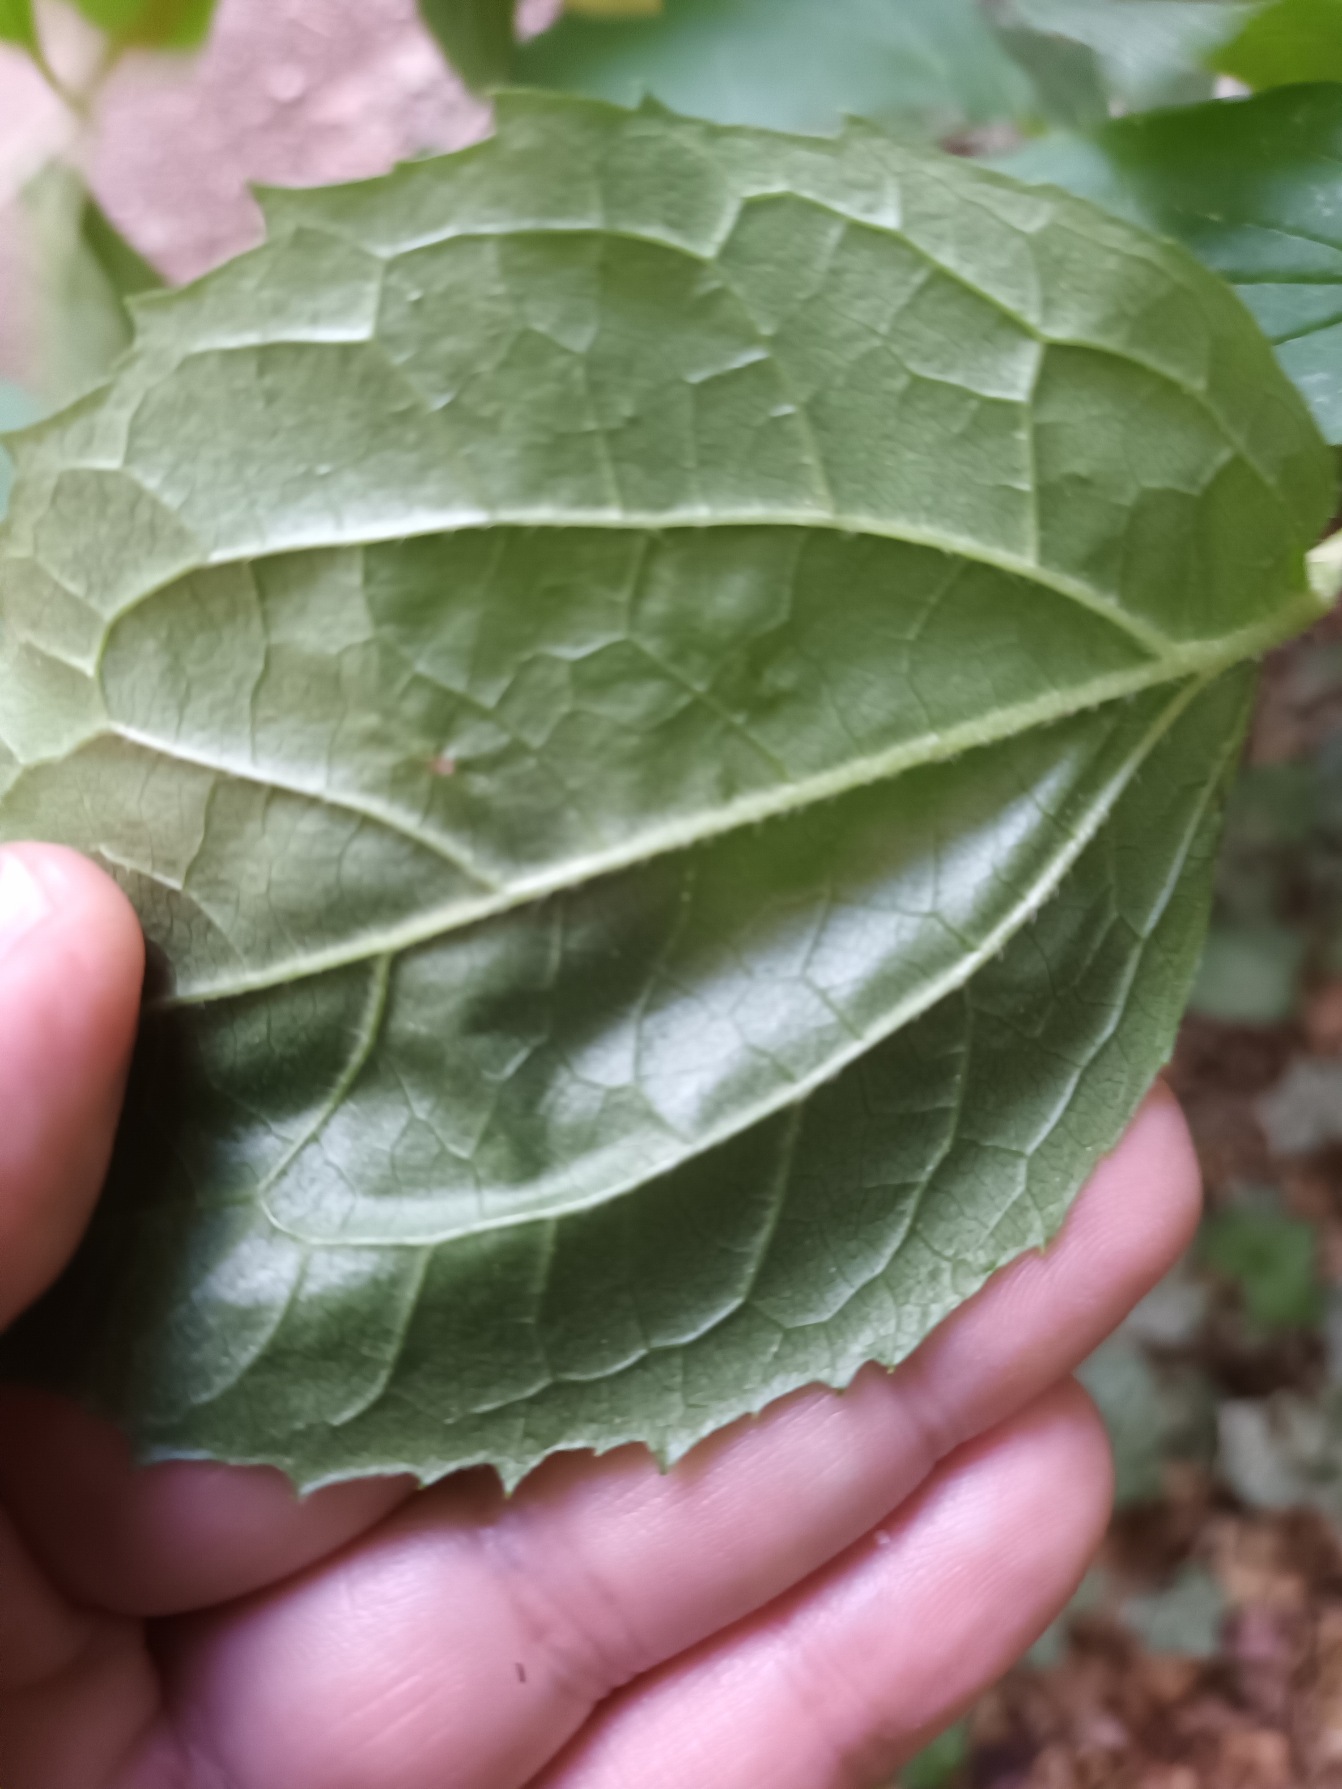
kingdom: Plantae
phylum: Tracheophyta
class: Magnoliopsida
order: Cornales
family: Hydrangeaceae
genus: Philadelphus
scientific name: Philadelphus coronarius
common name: Almindelig pibeved
